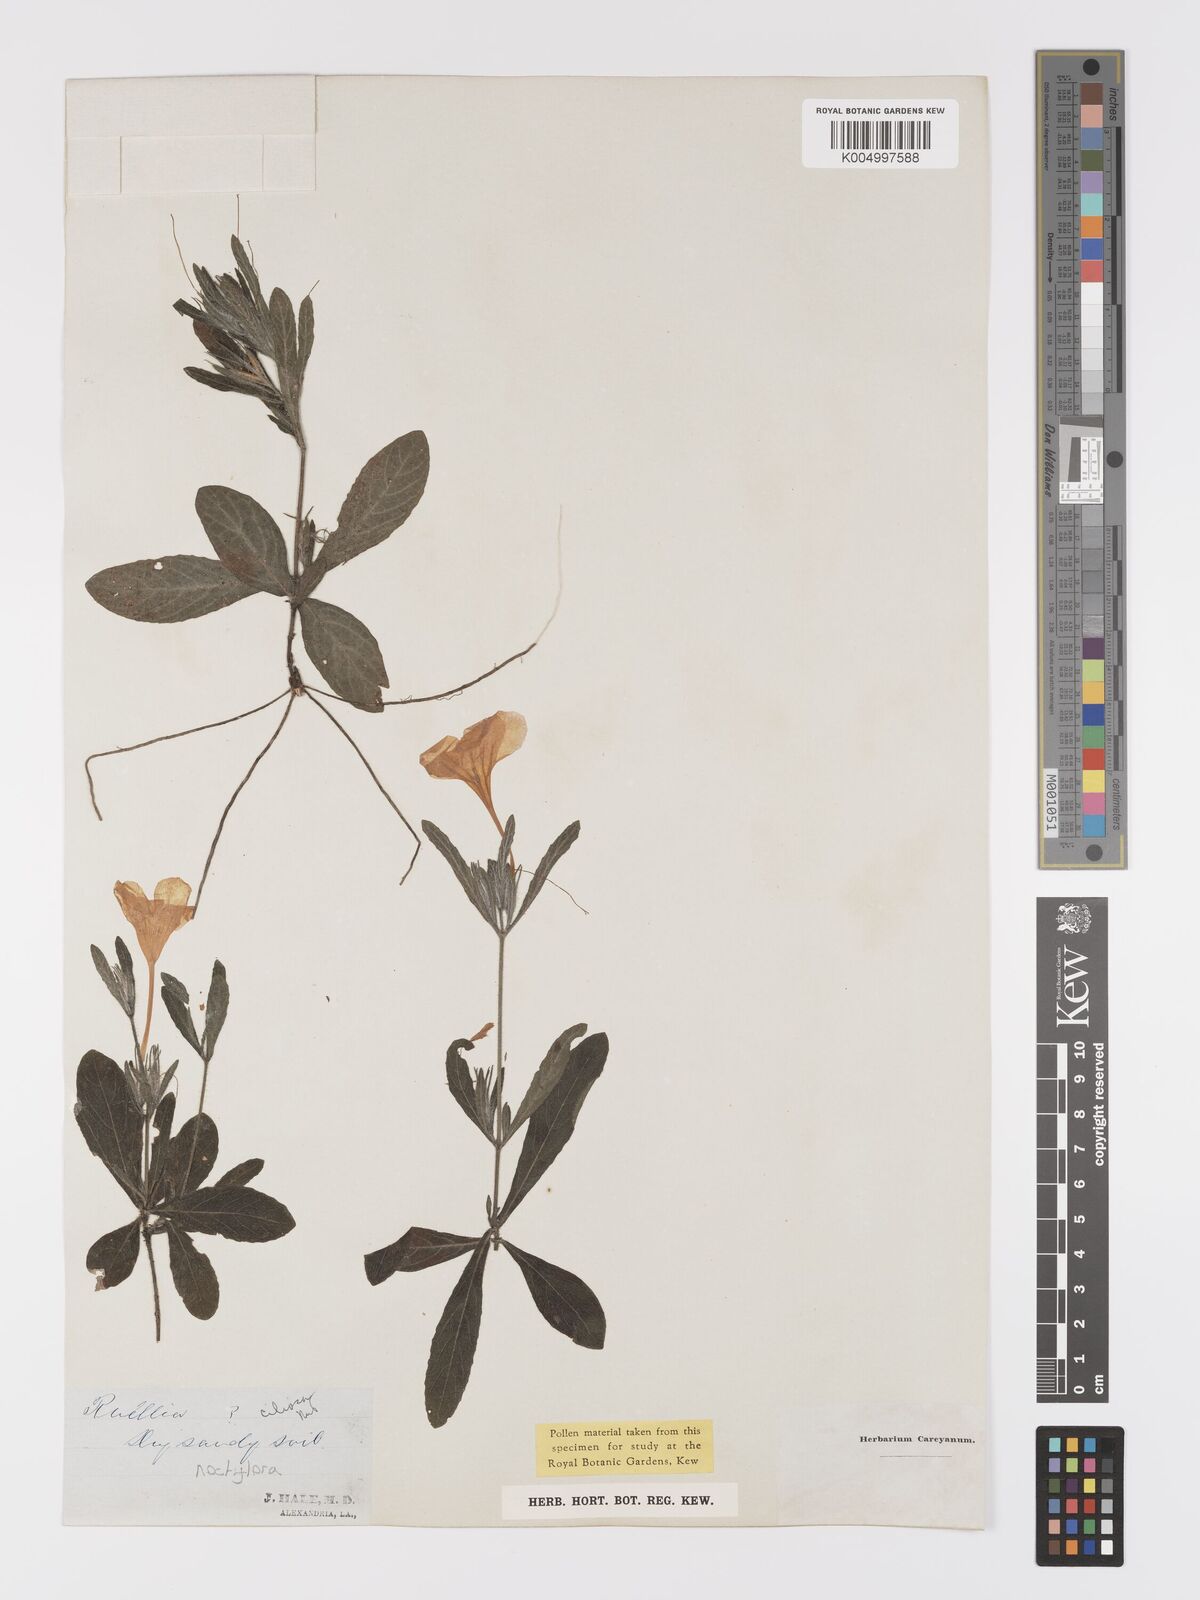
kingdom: Plantae
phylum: Tracheophyta
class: Magnoliopsida
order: Lamiales
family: Acanthaceae
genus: Ruellia
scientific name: Ruellia ciliatiflora
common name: Hairyflower wild petunia
